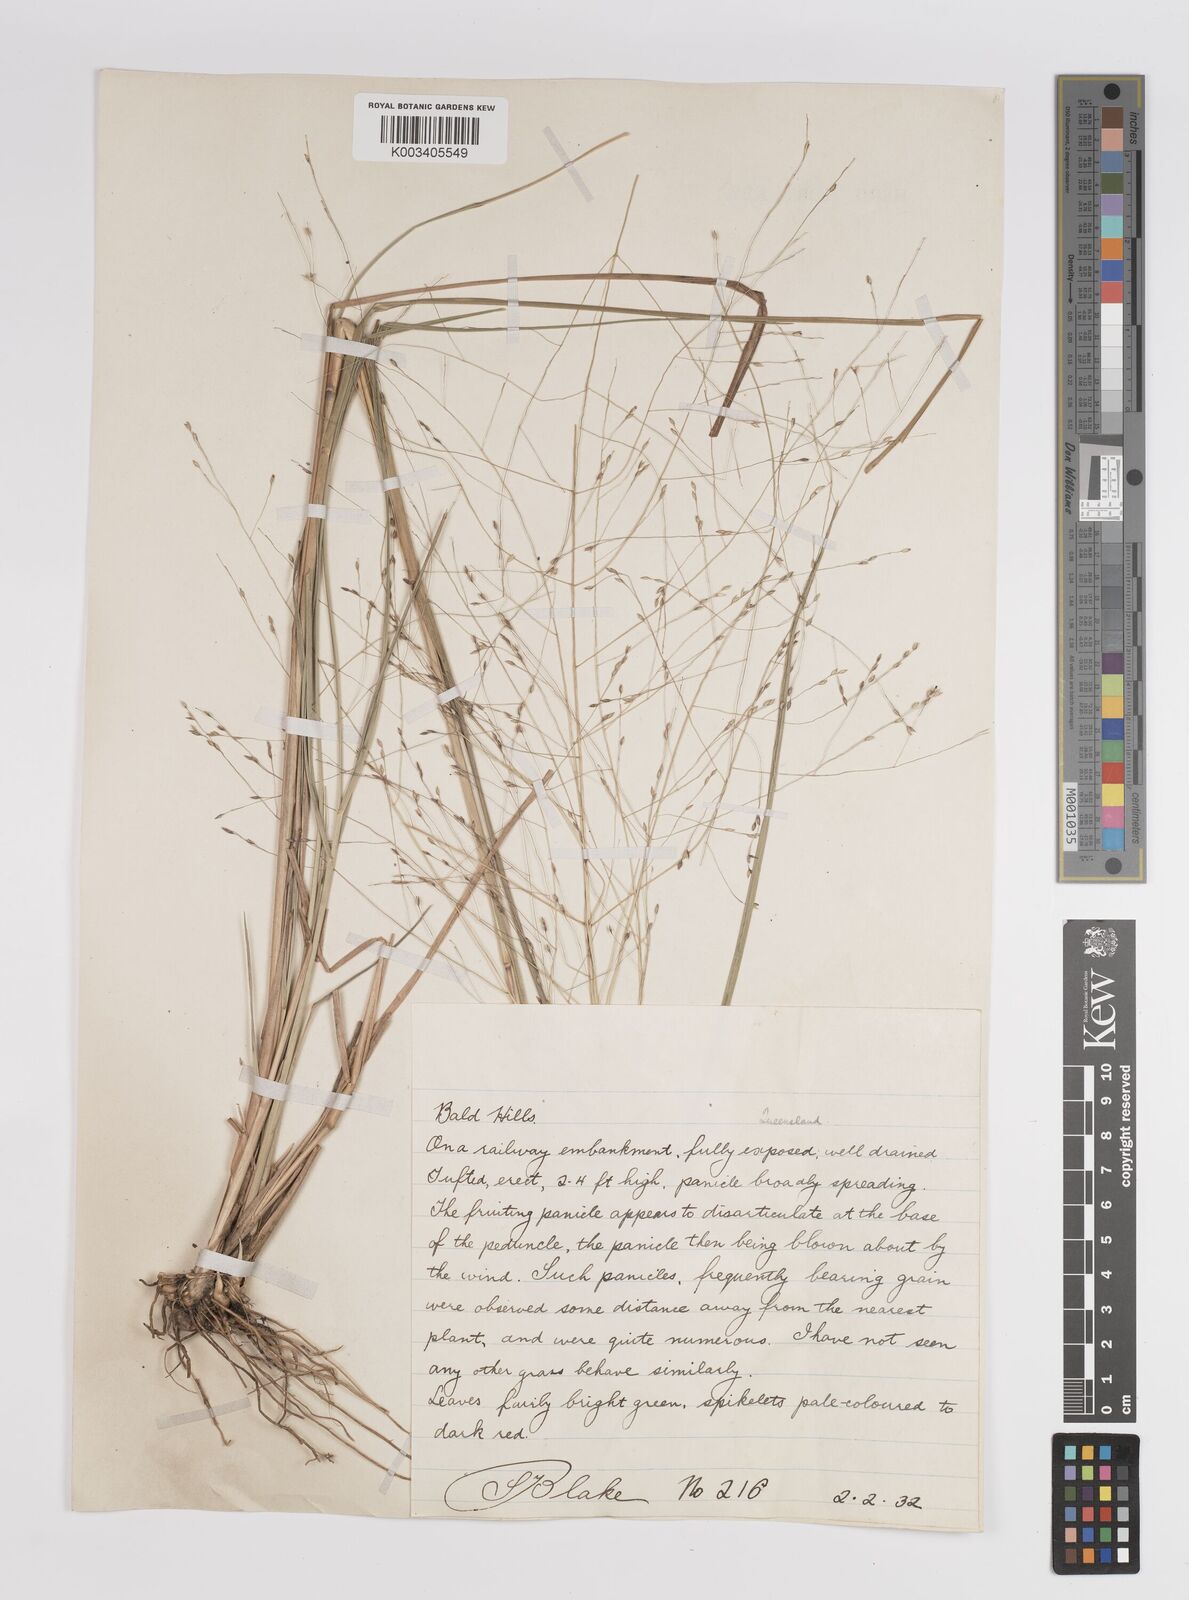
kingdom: Plantae
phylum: Tracheophyta
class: Liliopsida
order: Poales
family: Poaceae
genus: Panicum
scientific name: Panicum
